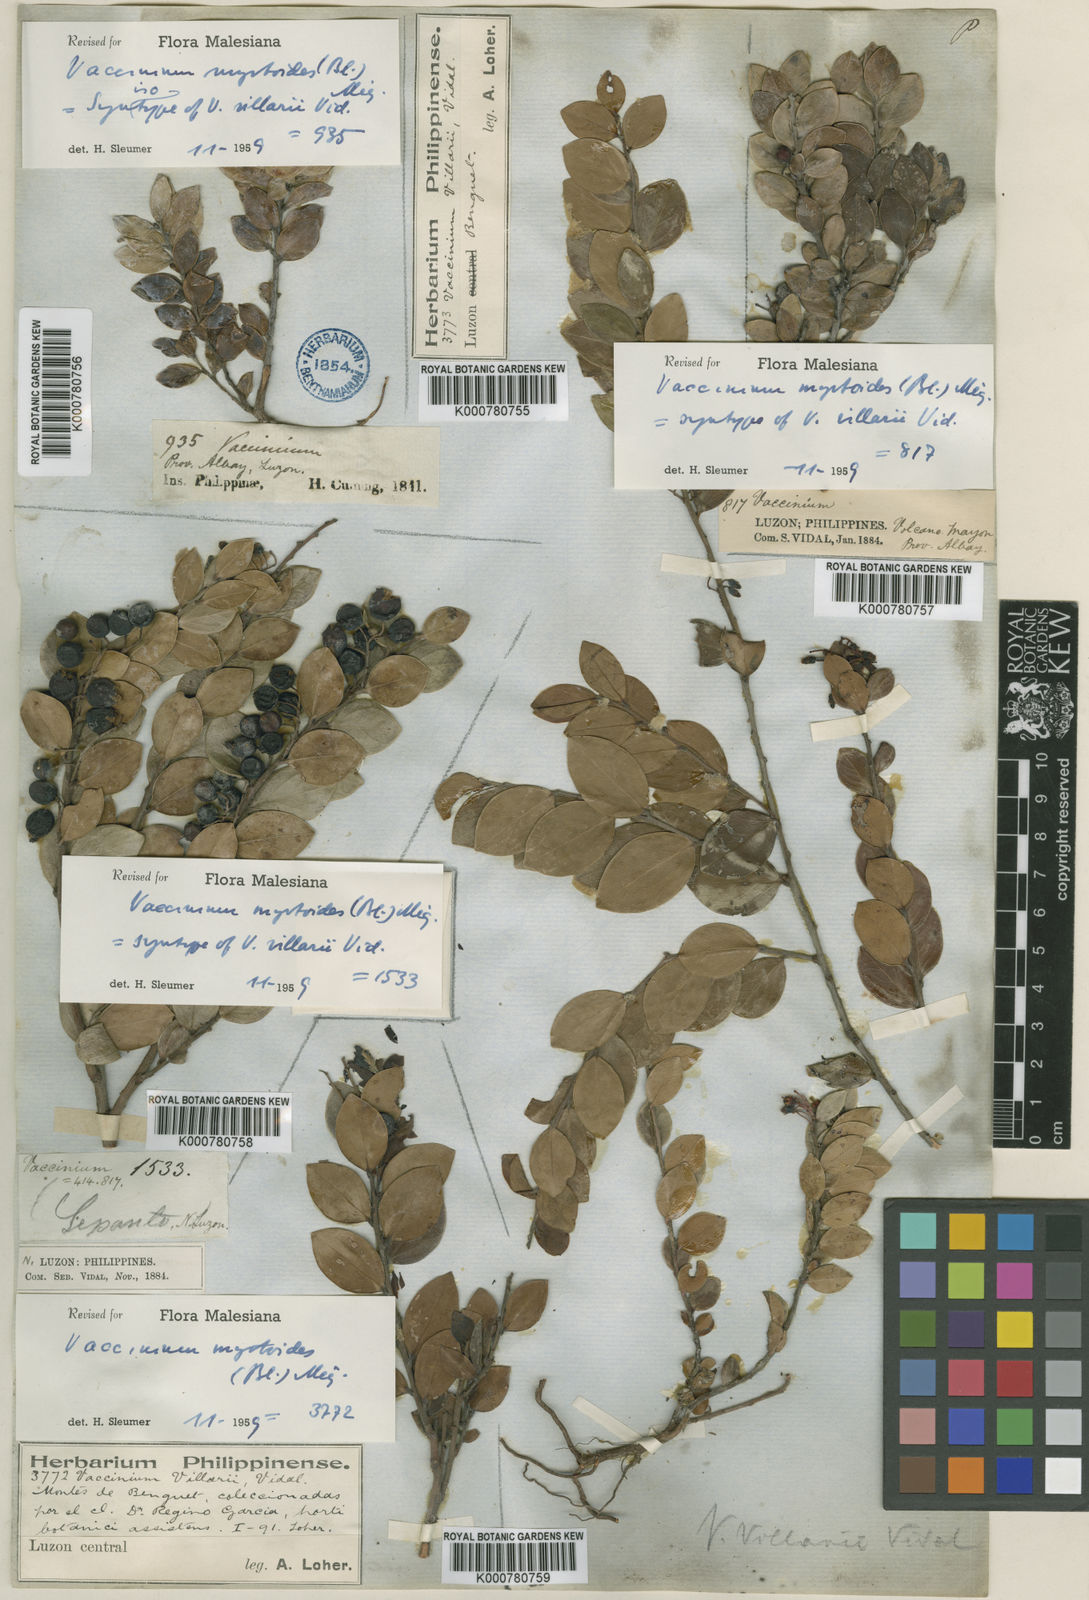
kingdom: Plantae
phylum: Tracheophyta
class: Magnoliopsida
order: Ericales
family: Ericaceae
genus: Vaccinium
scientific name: Vaccinium myrtoides
